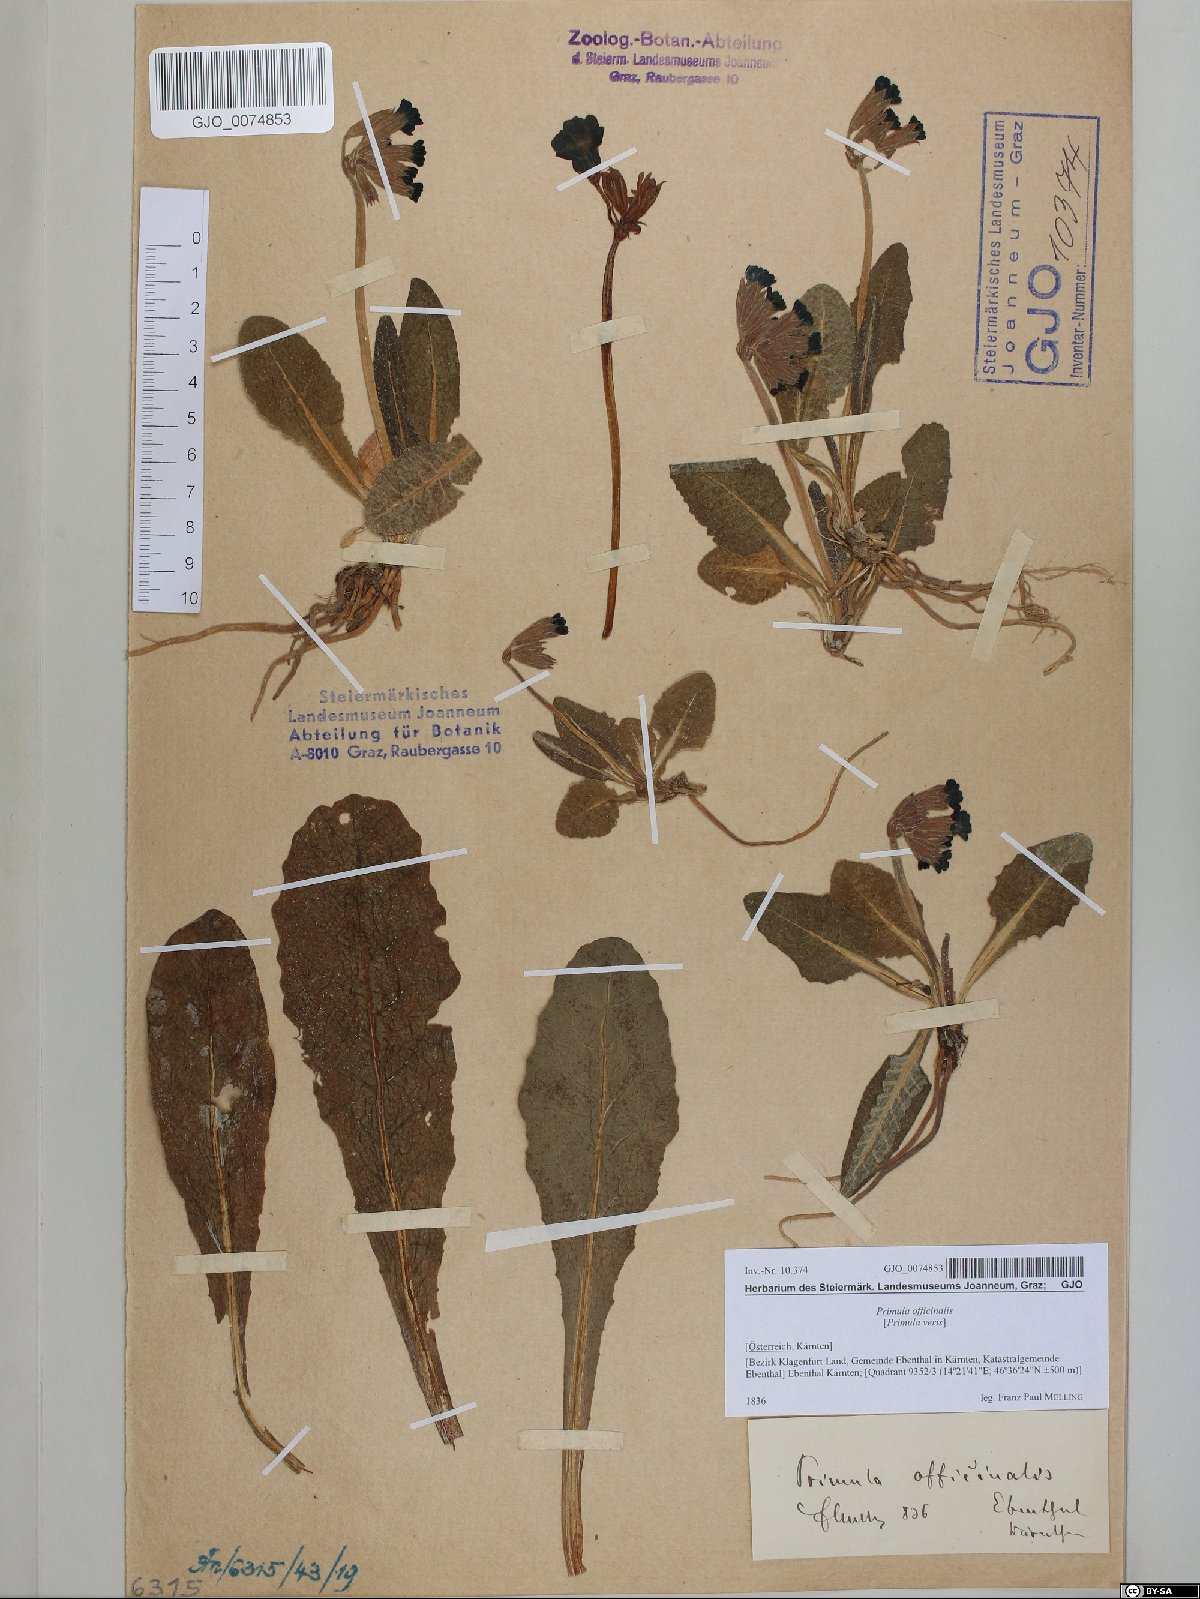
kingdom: Plantae
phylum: Tracheophyta
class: Magnoliopsida
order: Ericales
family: Primulaceae
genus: Primula
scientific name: Primula veris
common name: Cowslip
